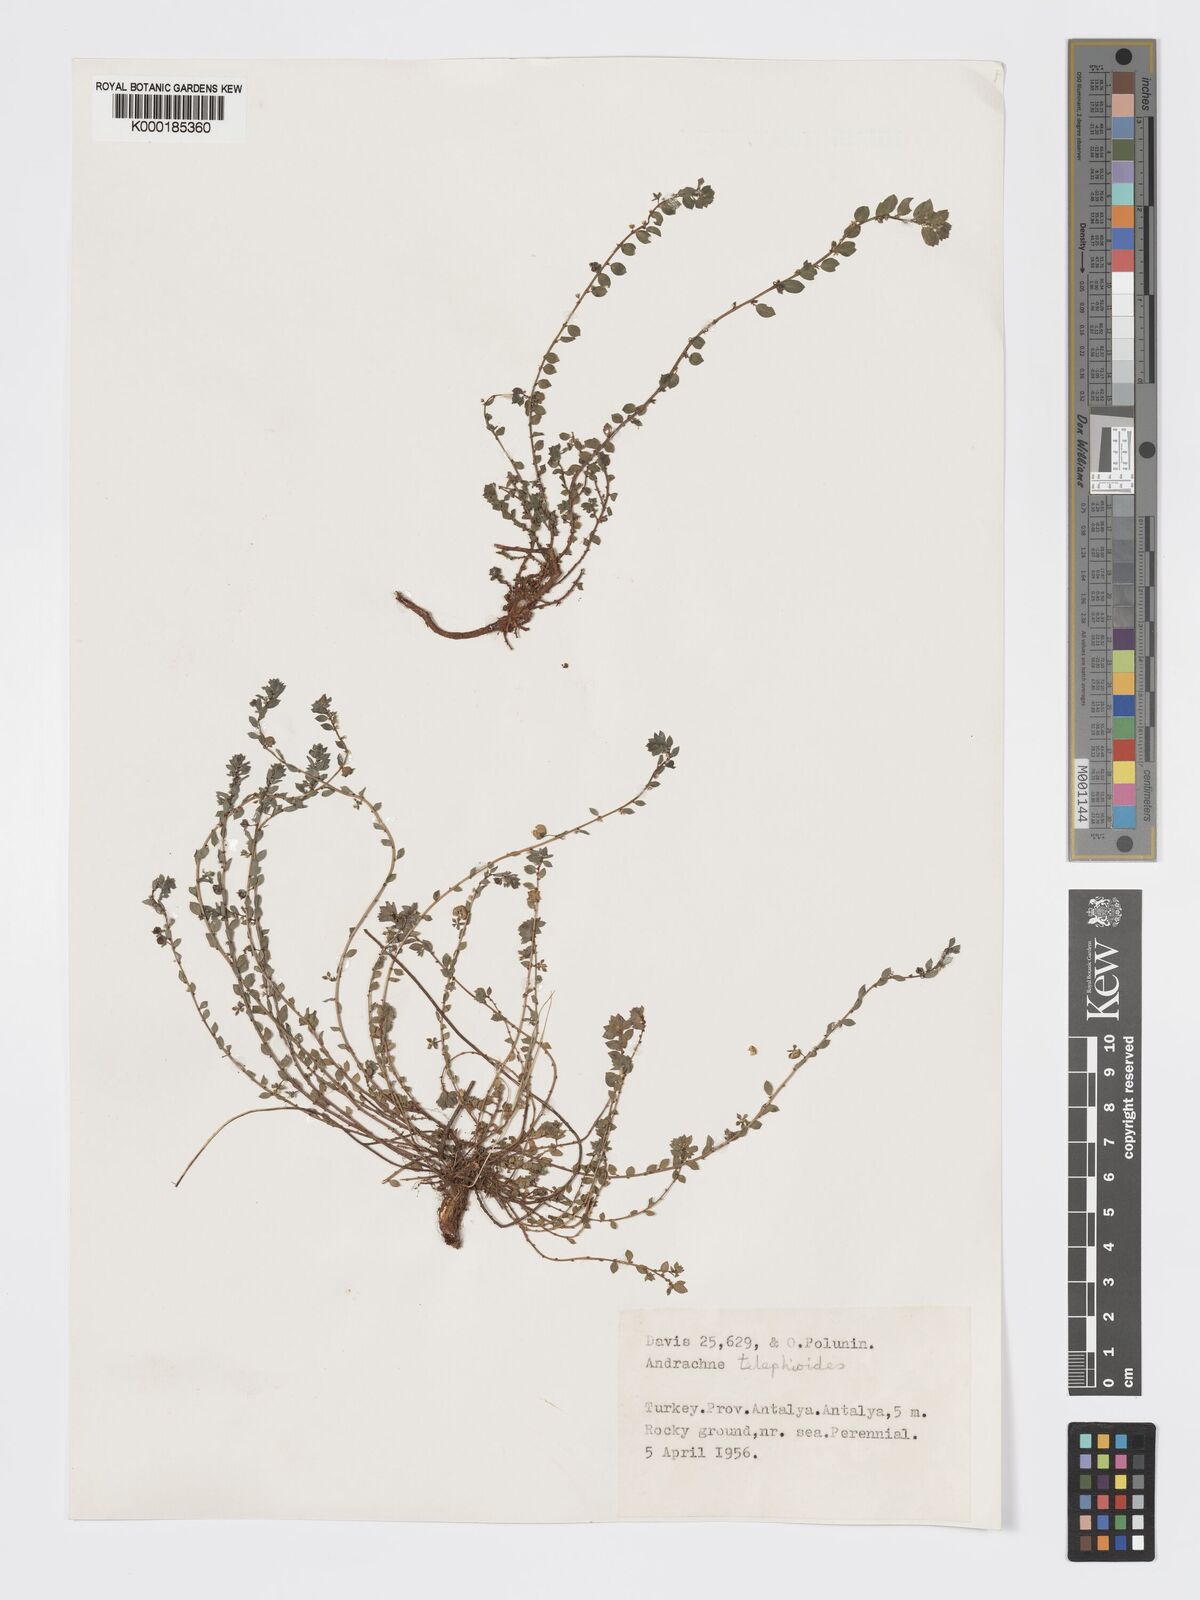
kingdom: Plantae
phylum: Tracheophyta
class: Magnoliopsida
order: Malpighiales
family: Phyllanthaceae
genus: Andrachne
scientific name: Andrachne telephioides
